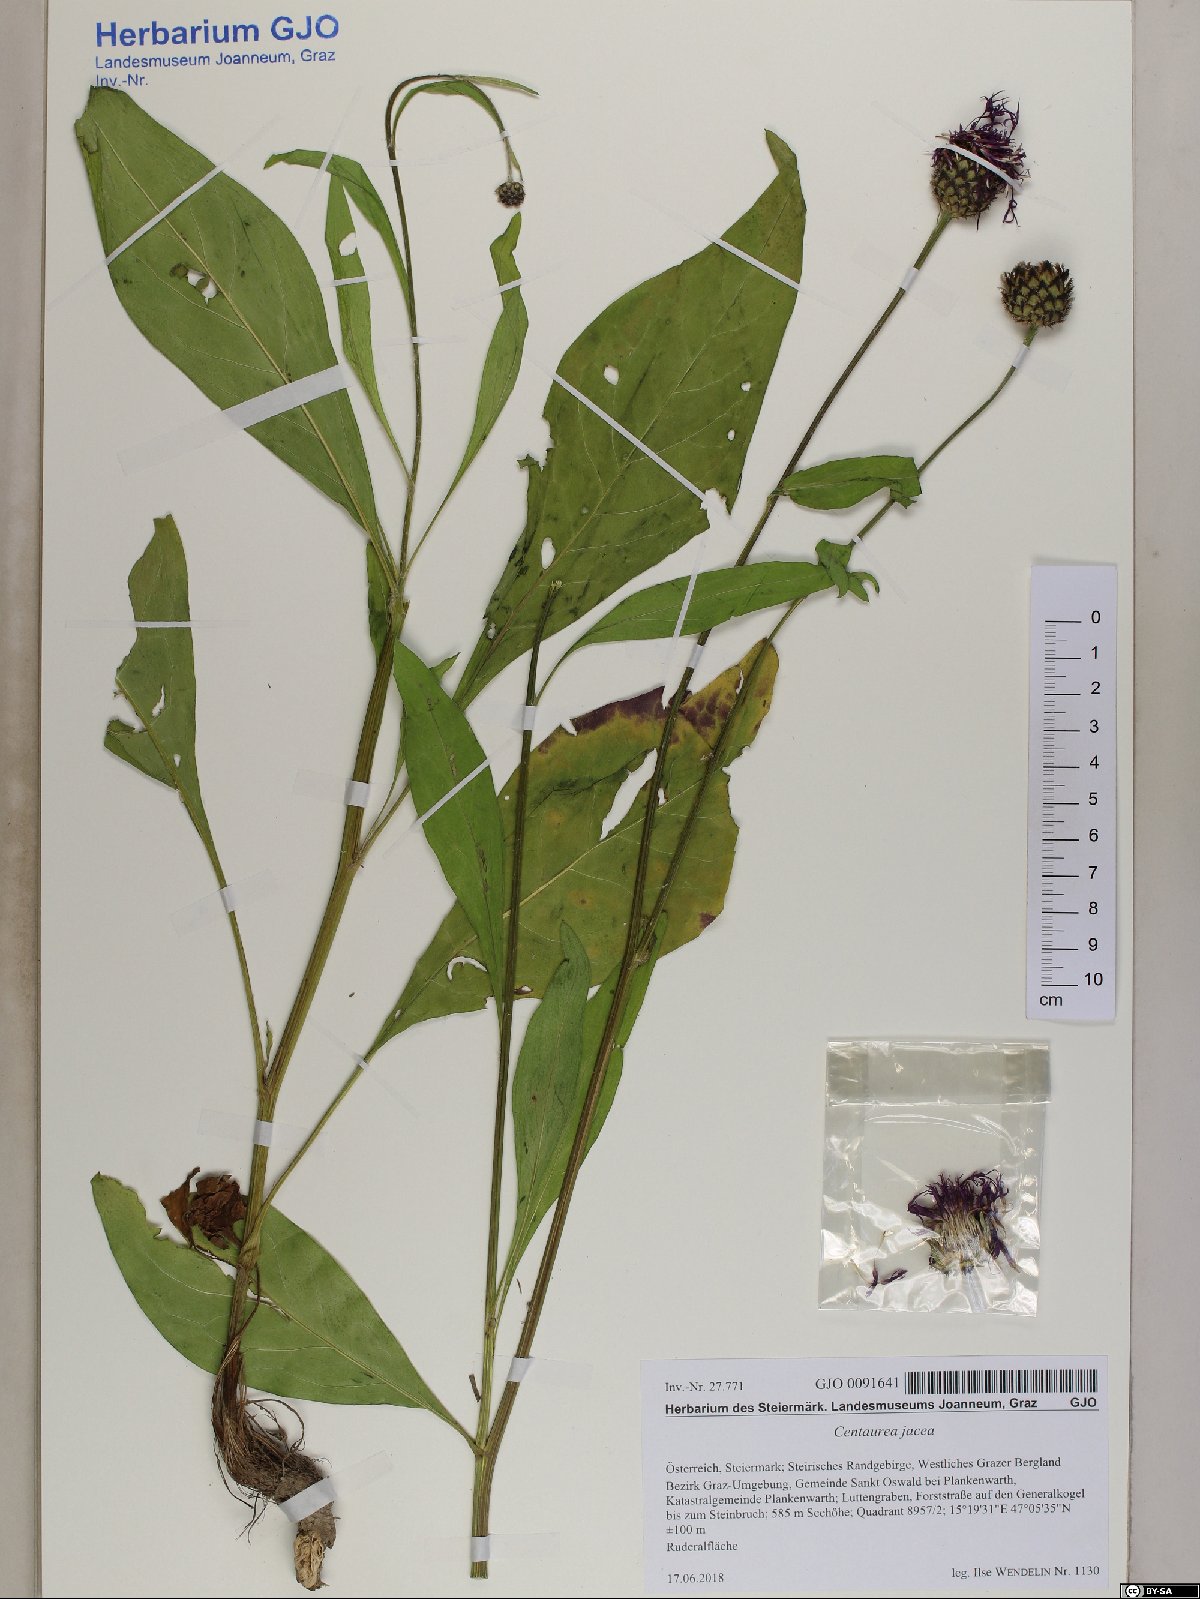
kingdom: Plantae
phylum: Tracheophyta
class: Magnoliopsida
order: Asterales
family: Asteraceae
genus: Centaurea
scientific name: Centaurea jacea
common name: Brown knapweed
